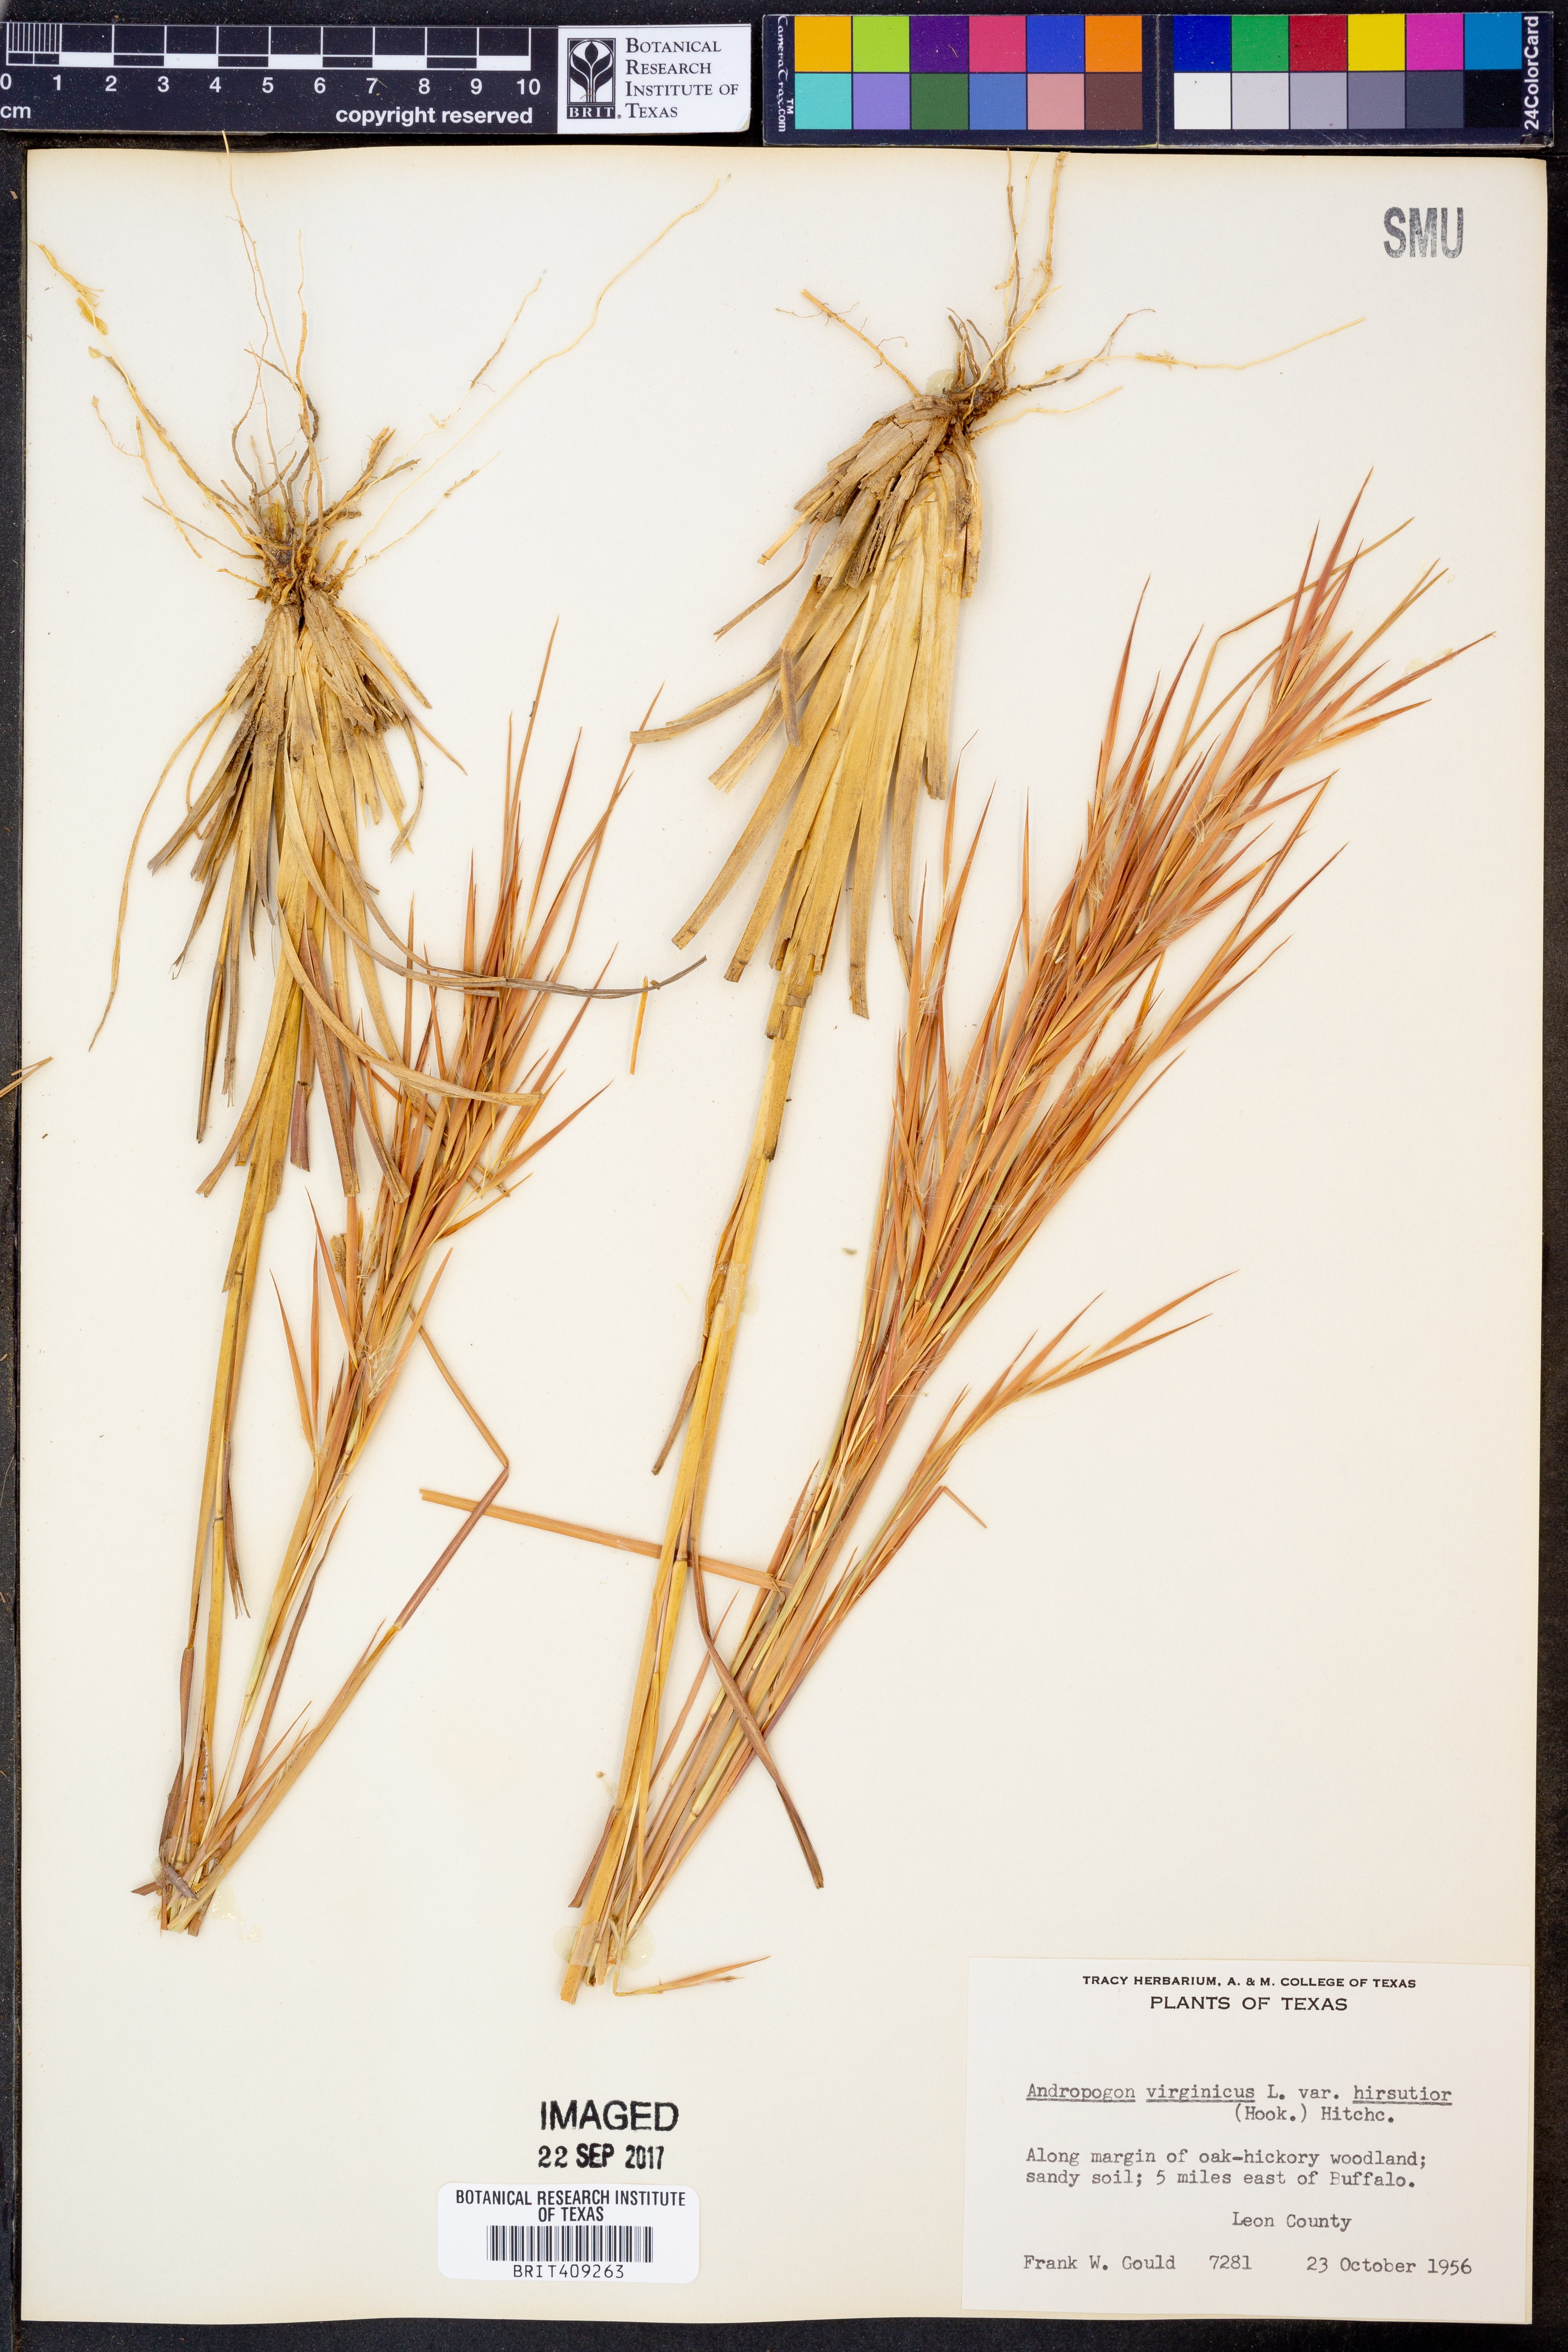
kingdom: Plantae
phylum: Tracheophyta
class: Liliopsida
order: Poales
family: Poaceae
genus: Andropogon
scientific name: Andropogon hirsutior
